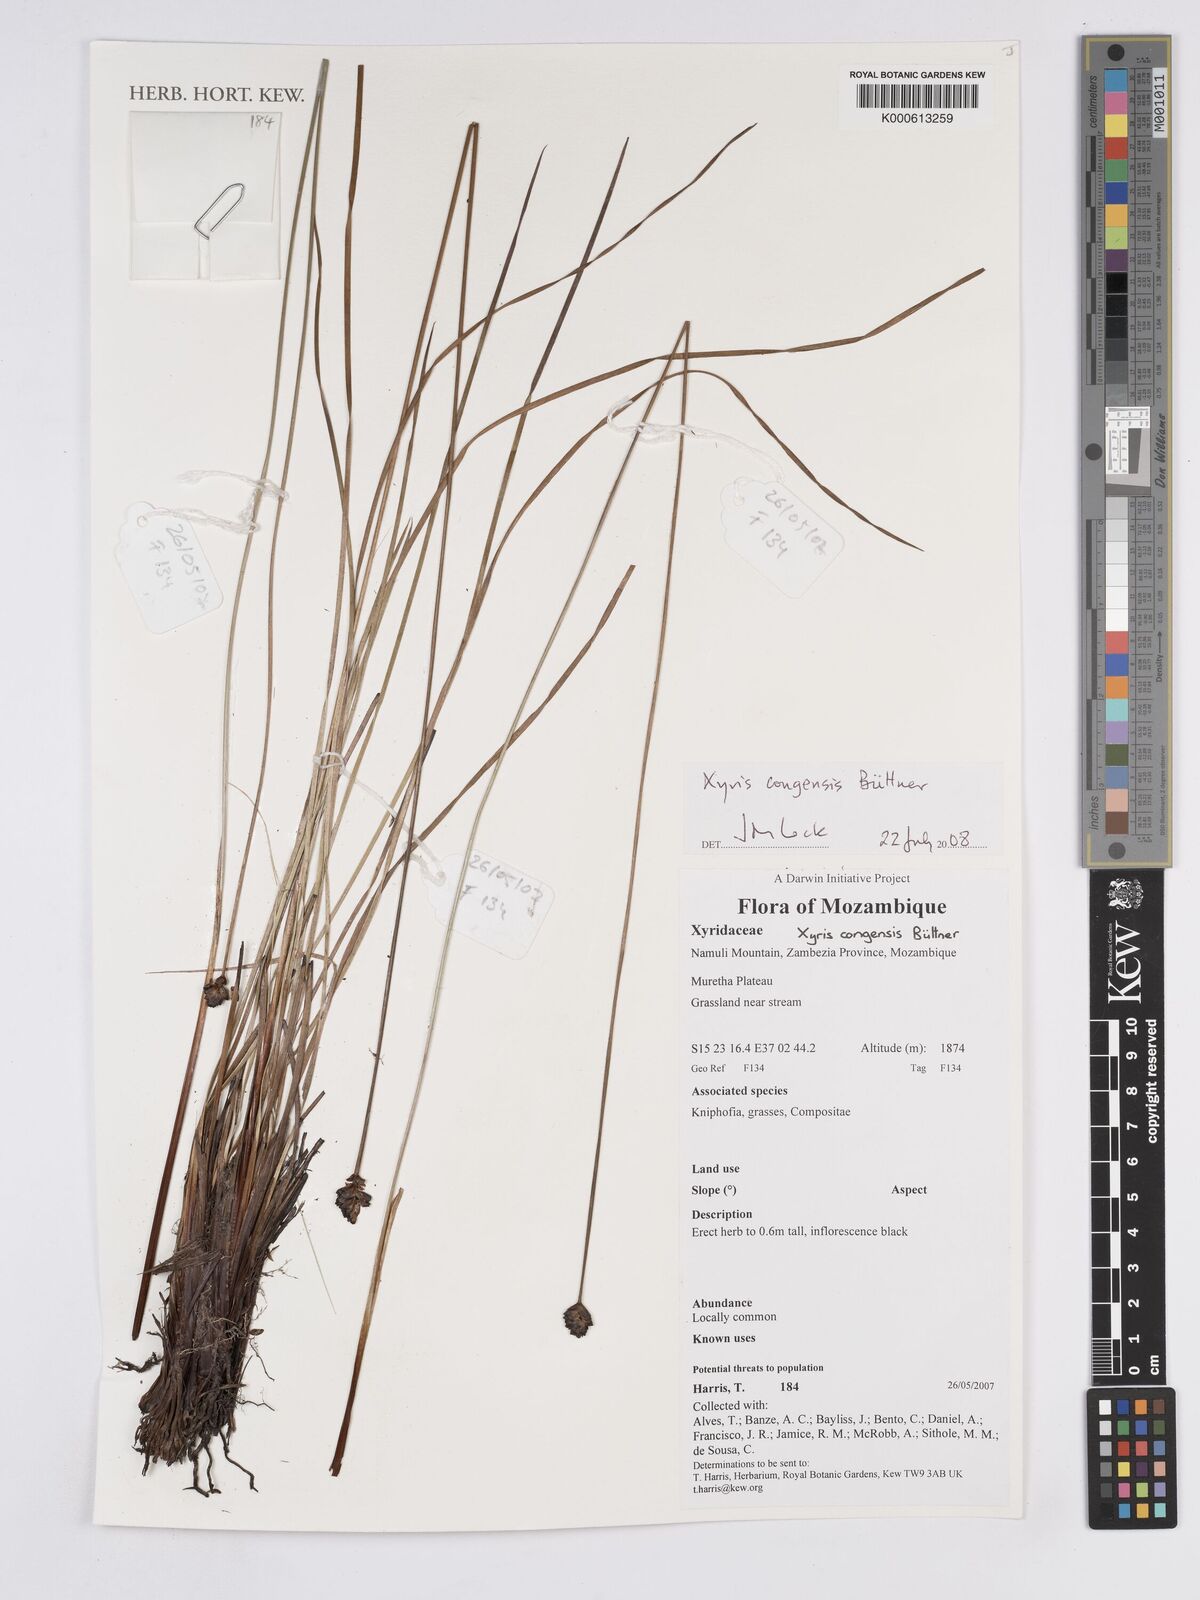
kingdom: Plantae
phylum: Tracheophyta
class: Liliopsida
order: Poales
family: Xyridaceae
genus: Xyris
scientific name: Xyris
